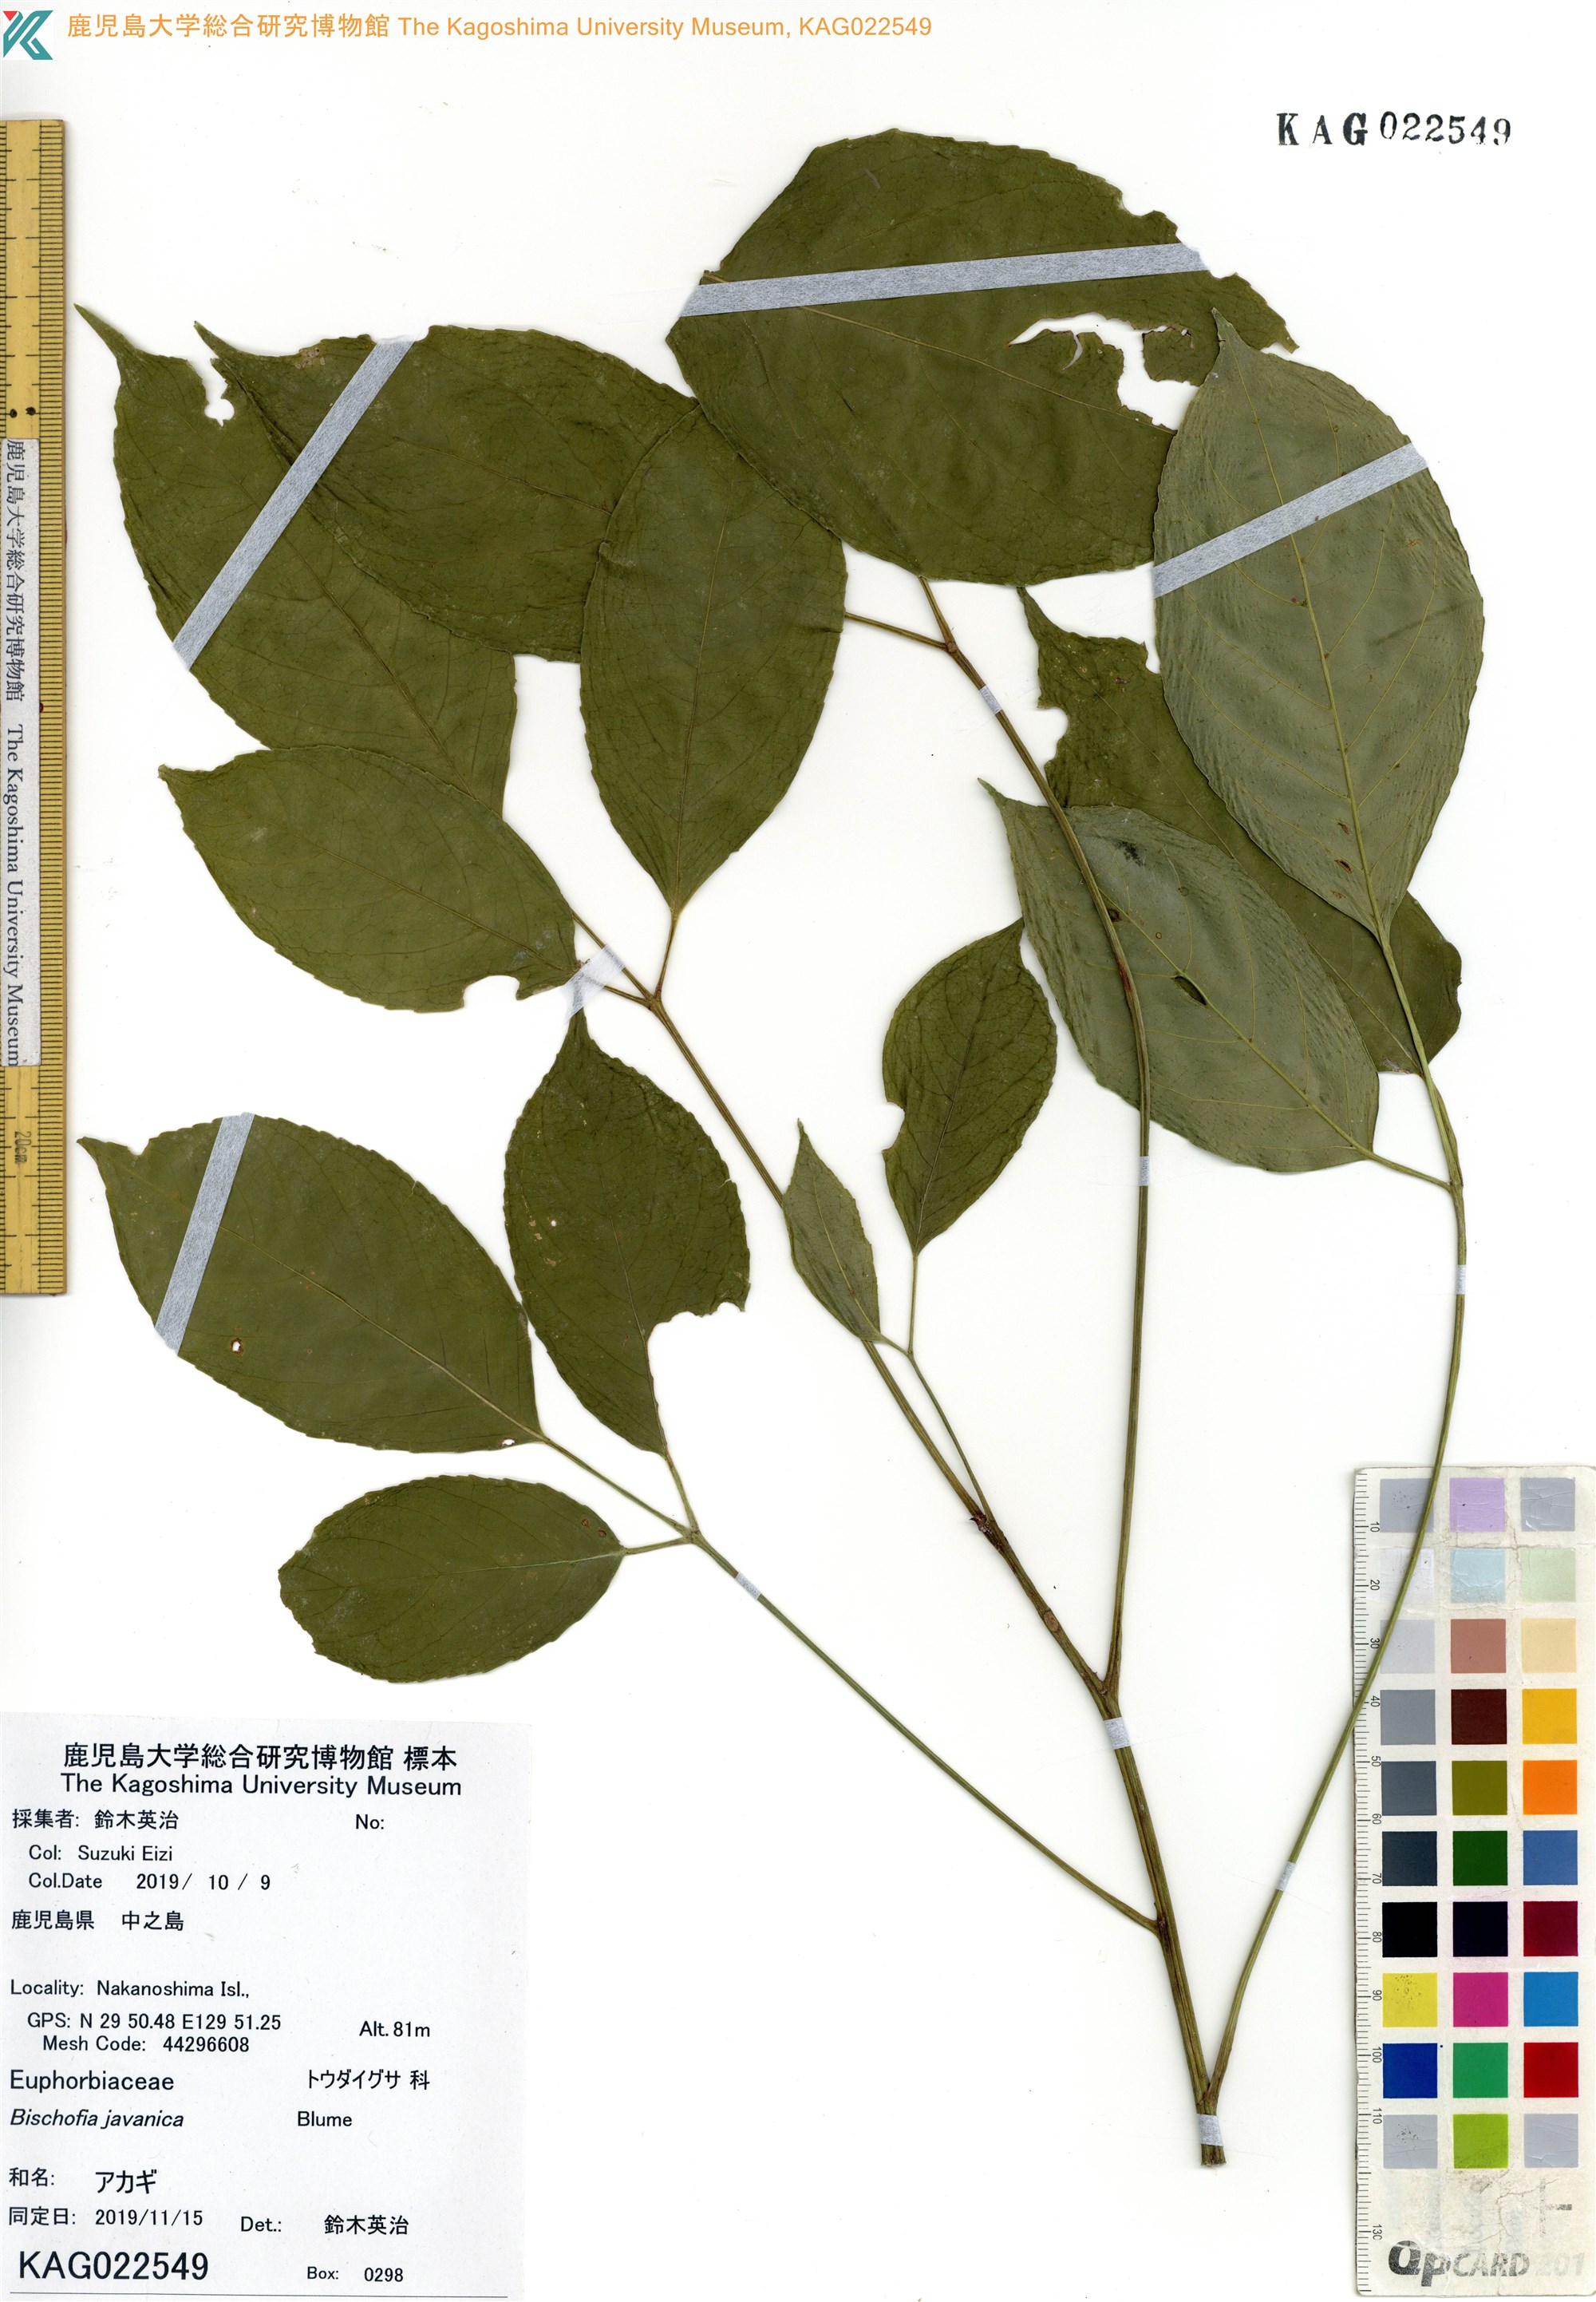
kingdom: Plantae
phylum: Tracheophyta
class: Magnoliopsida
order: Malpighiales
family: Phyllanthaceae
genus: Bischofia
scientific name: Bischofia javanica
